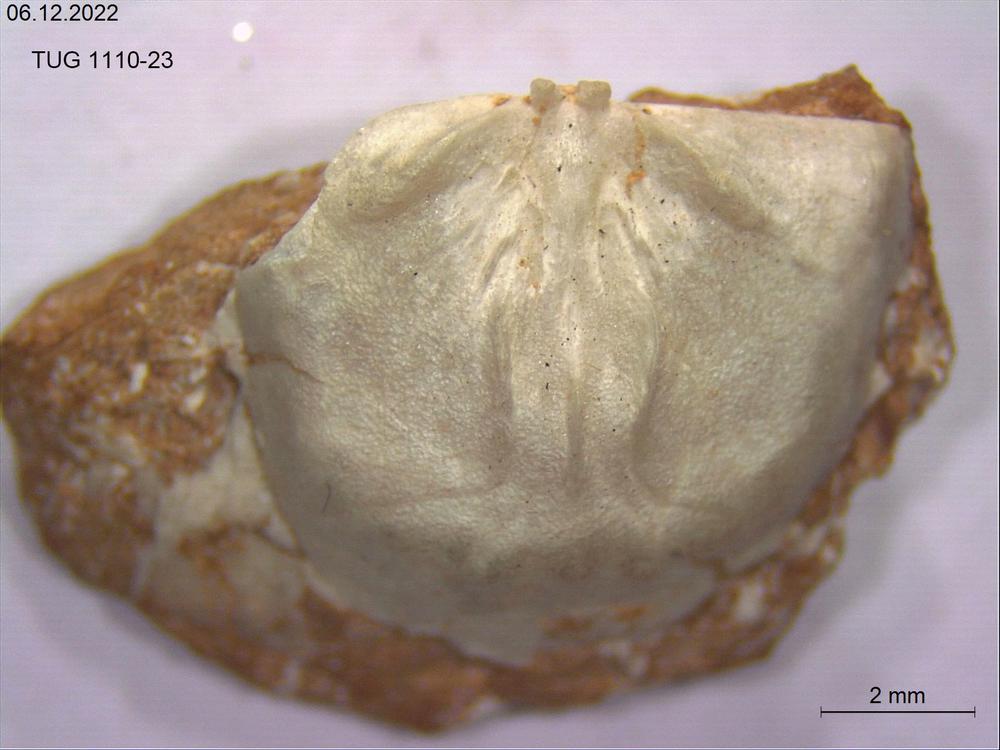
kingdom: Animalia
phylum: Brachiopoda
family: Strophomenidae
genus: Bekkerina
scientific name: Bekkerina Rafinesquina dorsata
